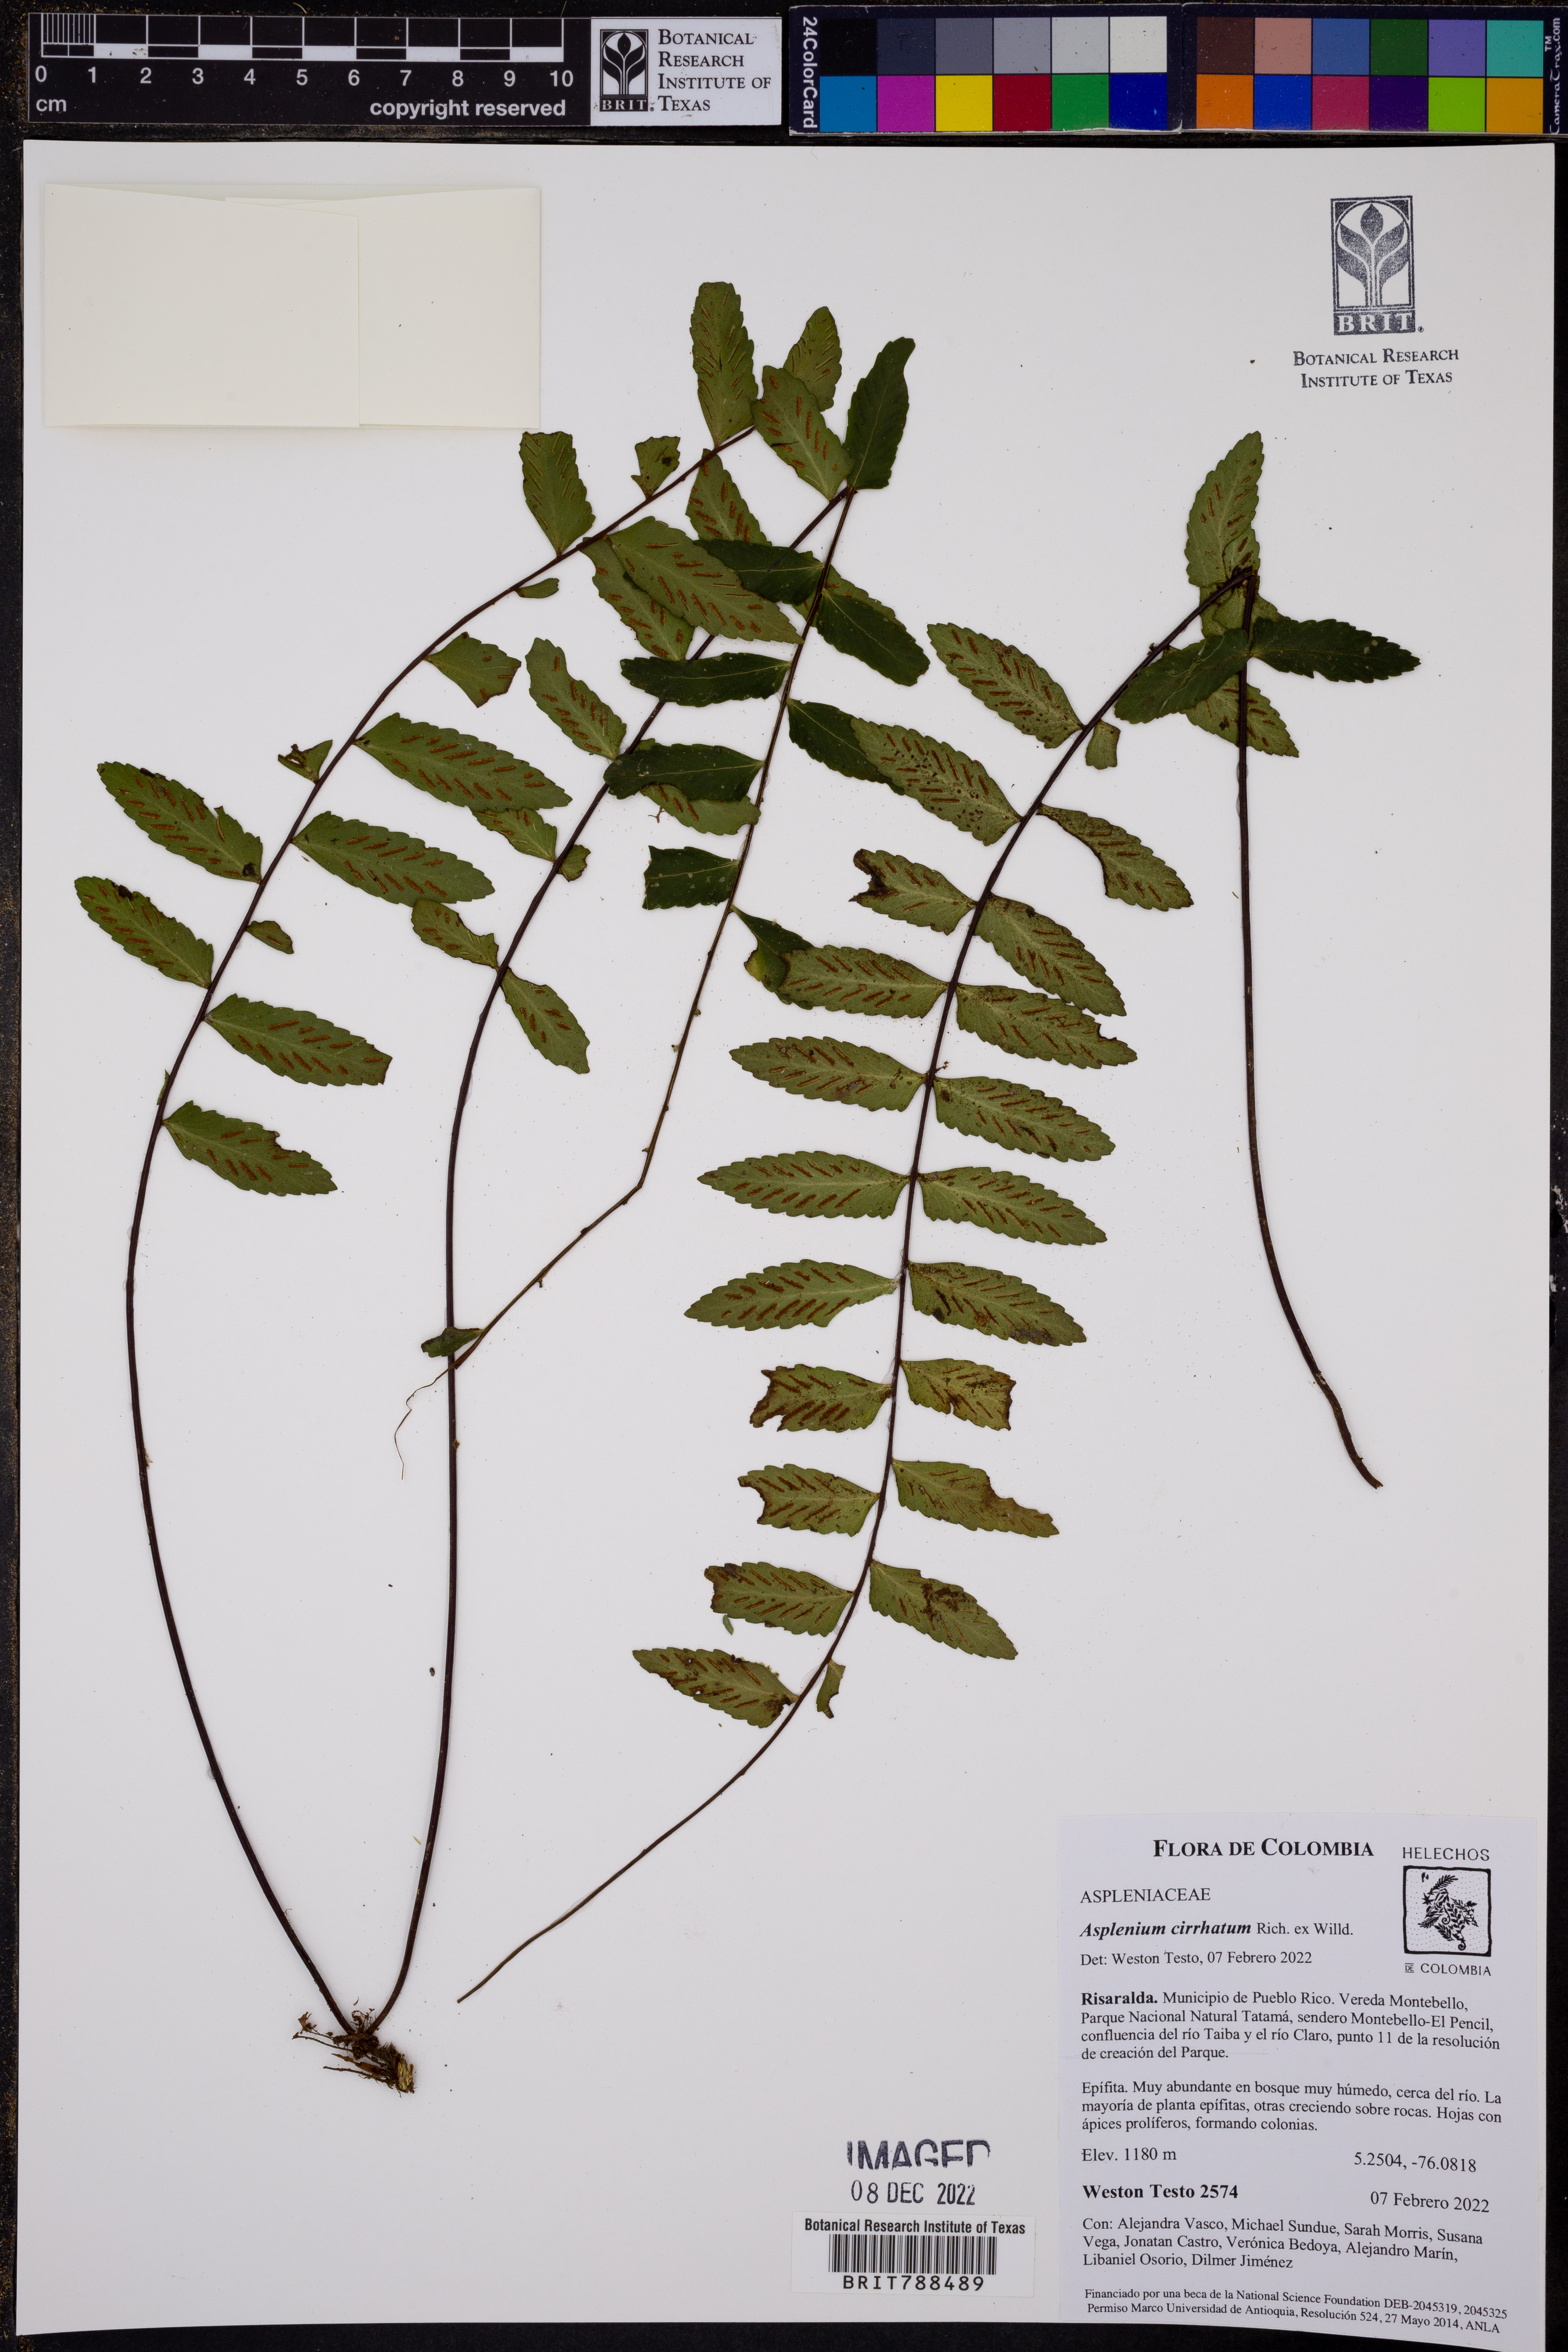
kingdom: Plantae
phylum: Tracheophyta
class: Polypodiopsida
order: Polypodiales
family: Aspleniaceae
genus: Asplenium
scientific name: Asplenium cirrhatum
